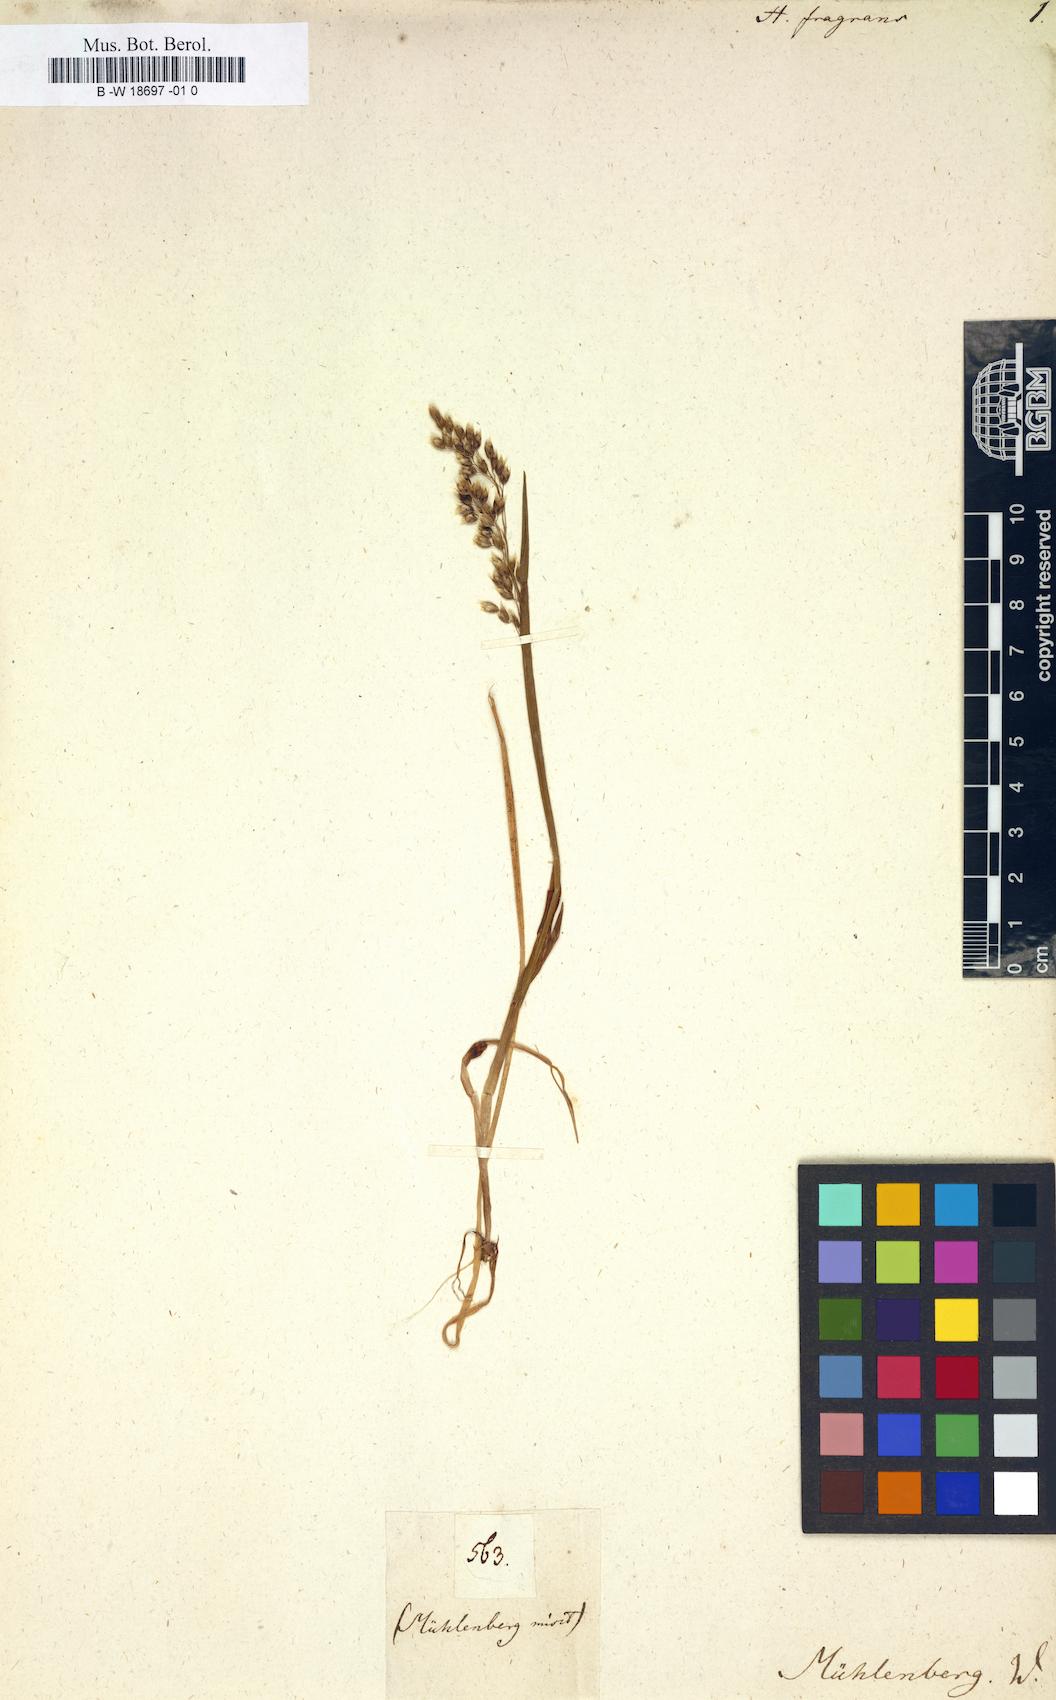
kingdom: Plantae
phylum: Tracheophyta
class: Liliopsida
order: Poales
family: Poaceae
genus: Anthoxanthum
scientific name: Anthoxanthum nitens
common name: Holy grass
